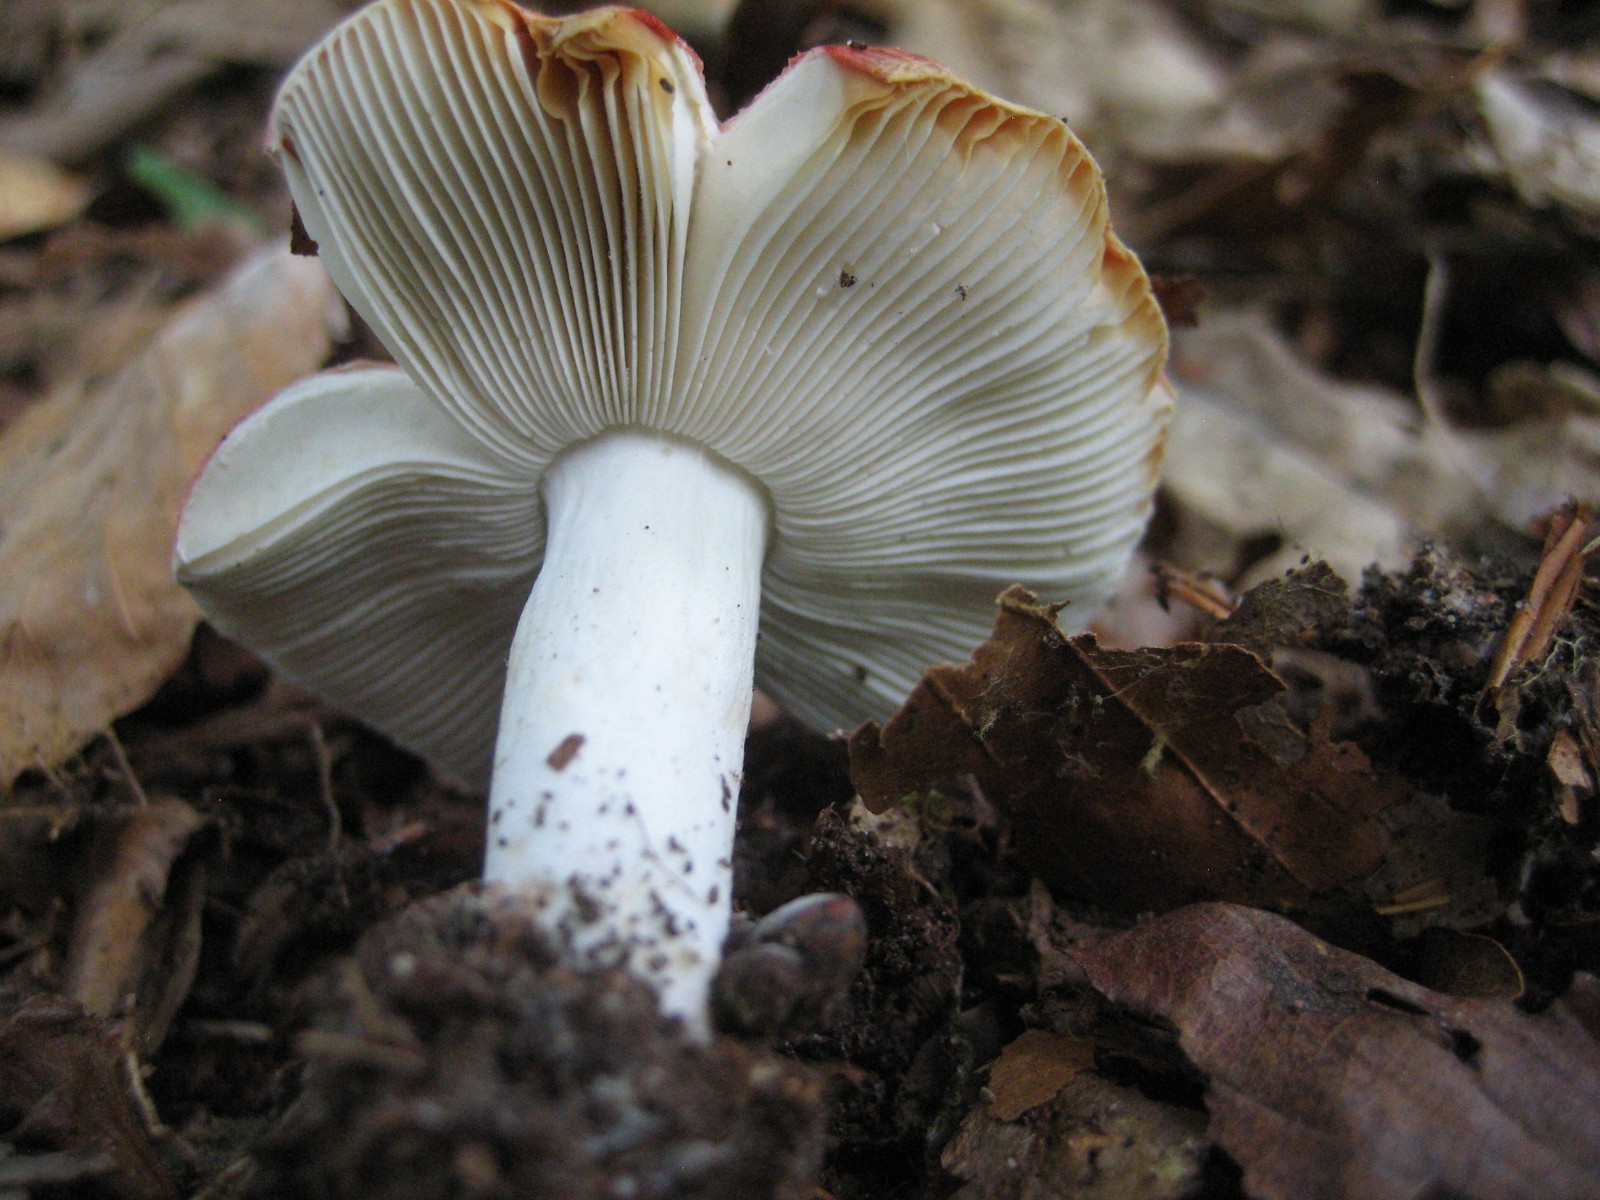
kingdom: Fungi
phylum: Basidiomycota
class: Agaricomycetes
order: Russulales
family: Russulaceae
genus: Russula
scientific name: Russula
